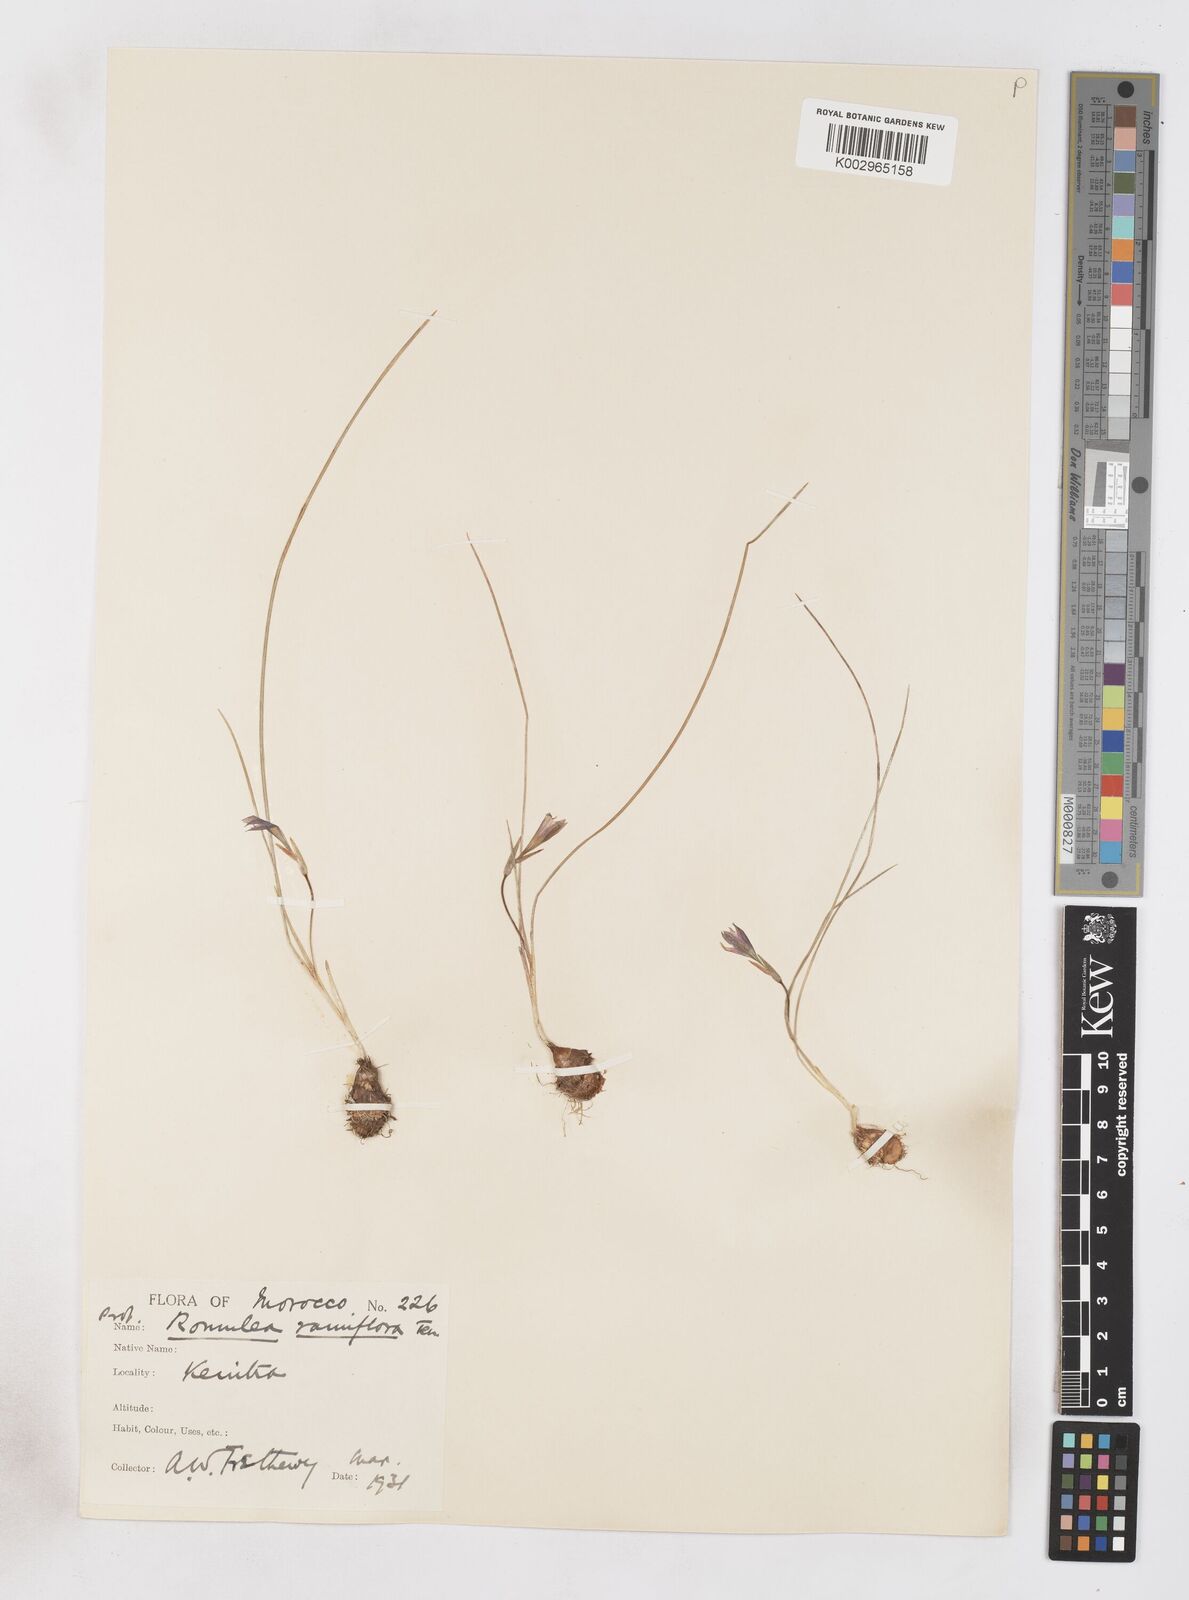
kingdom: Plantae
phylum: Tracheophyta
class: Liliopsida
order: Asparagales
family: Iridaceae
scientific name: Iridaceae
